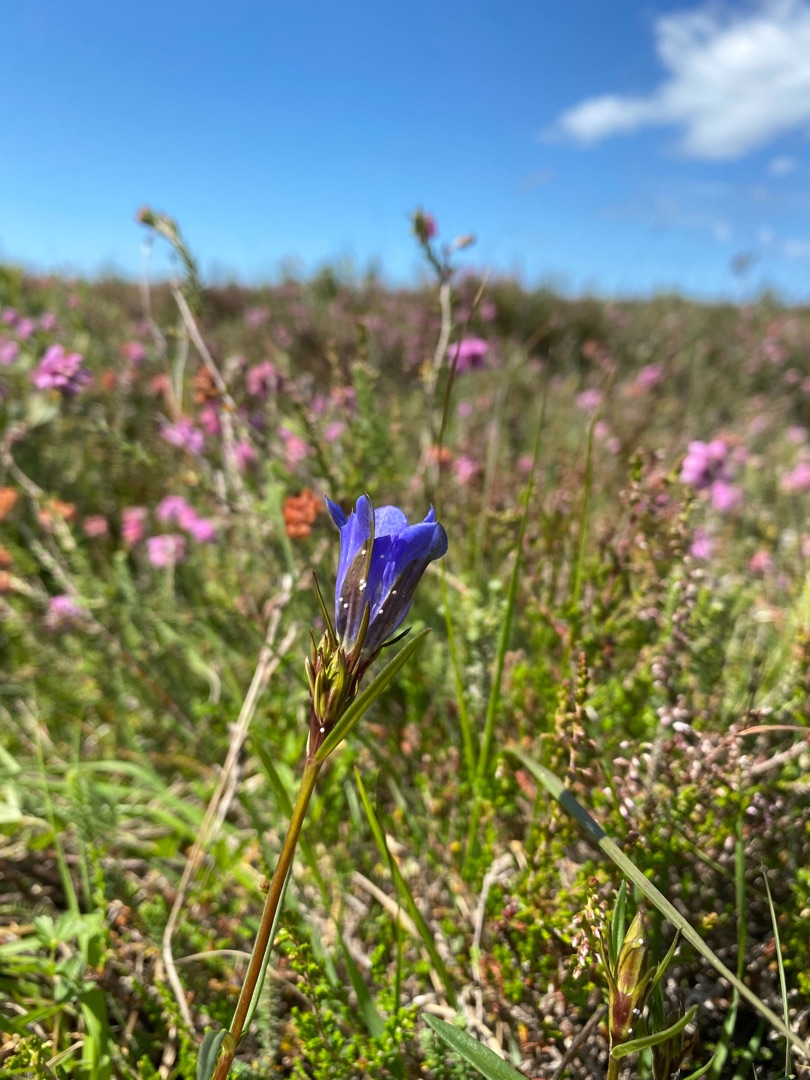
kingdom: Animalia
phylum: Arthropoda
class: Insecta
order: Lepidoptera
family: Lycaenidae
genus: Maculinea
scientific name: Maculinea alcon
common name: Ensianblåfugl
